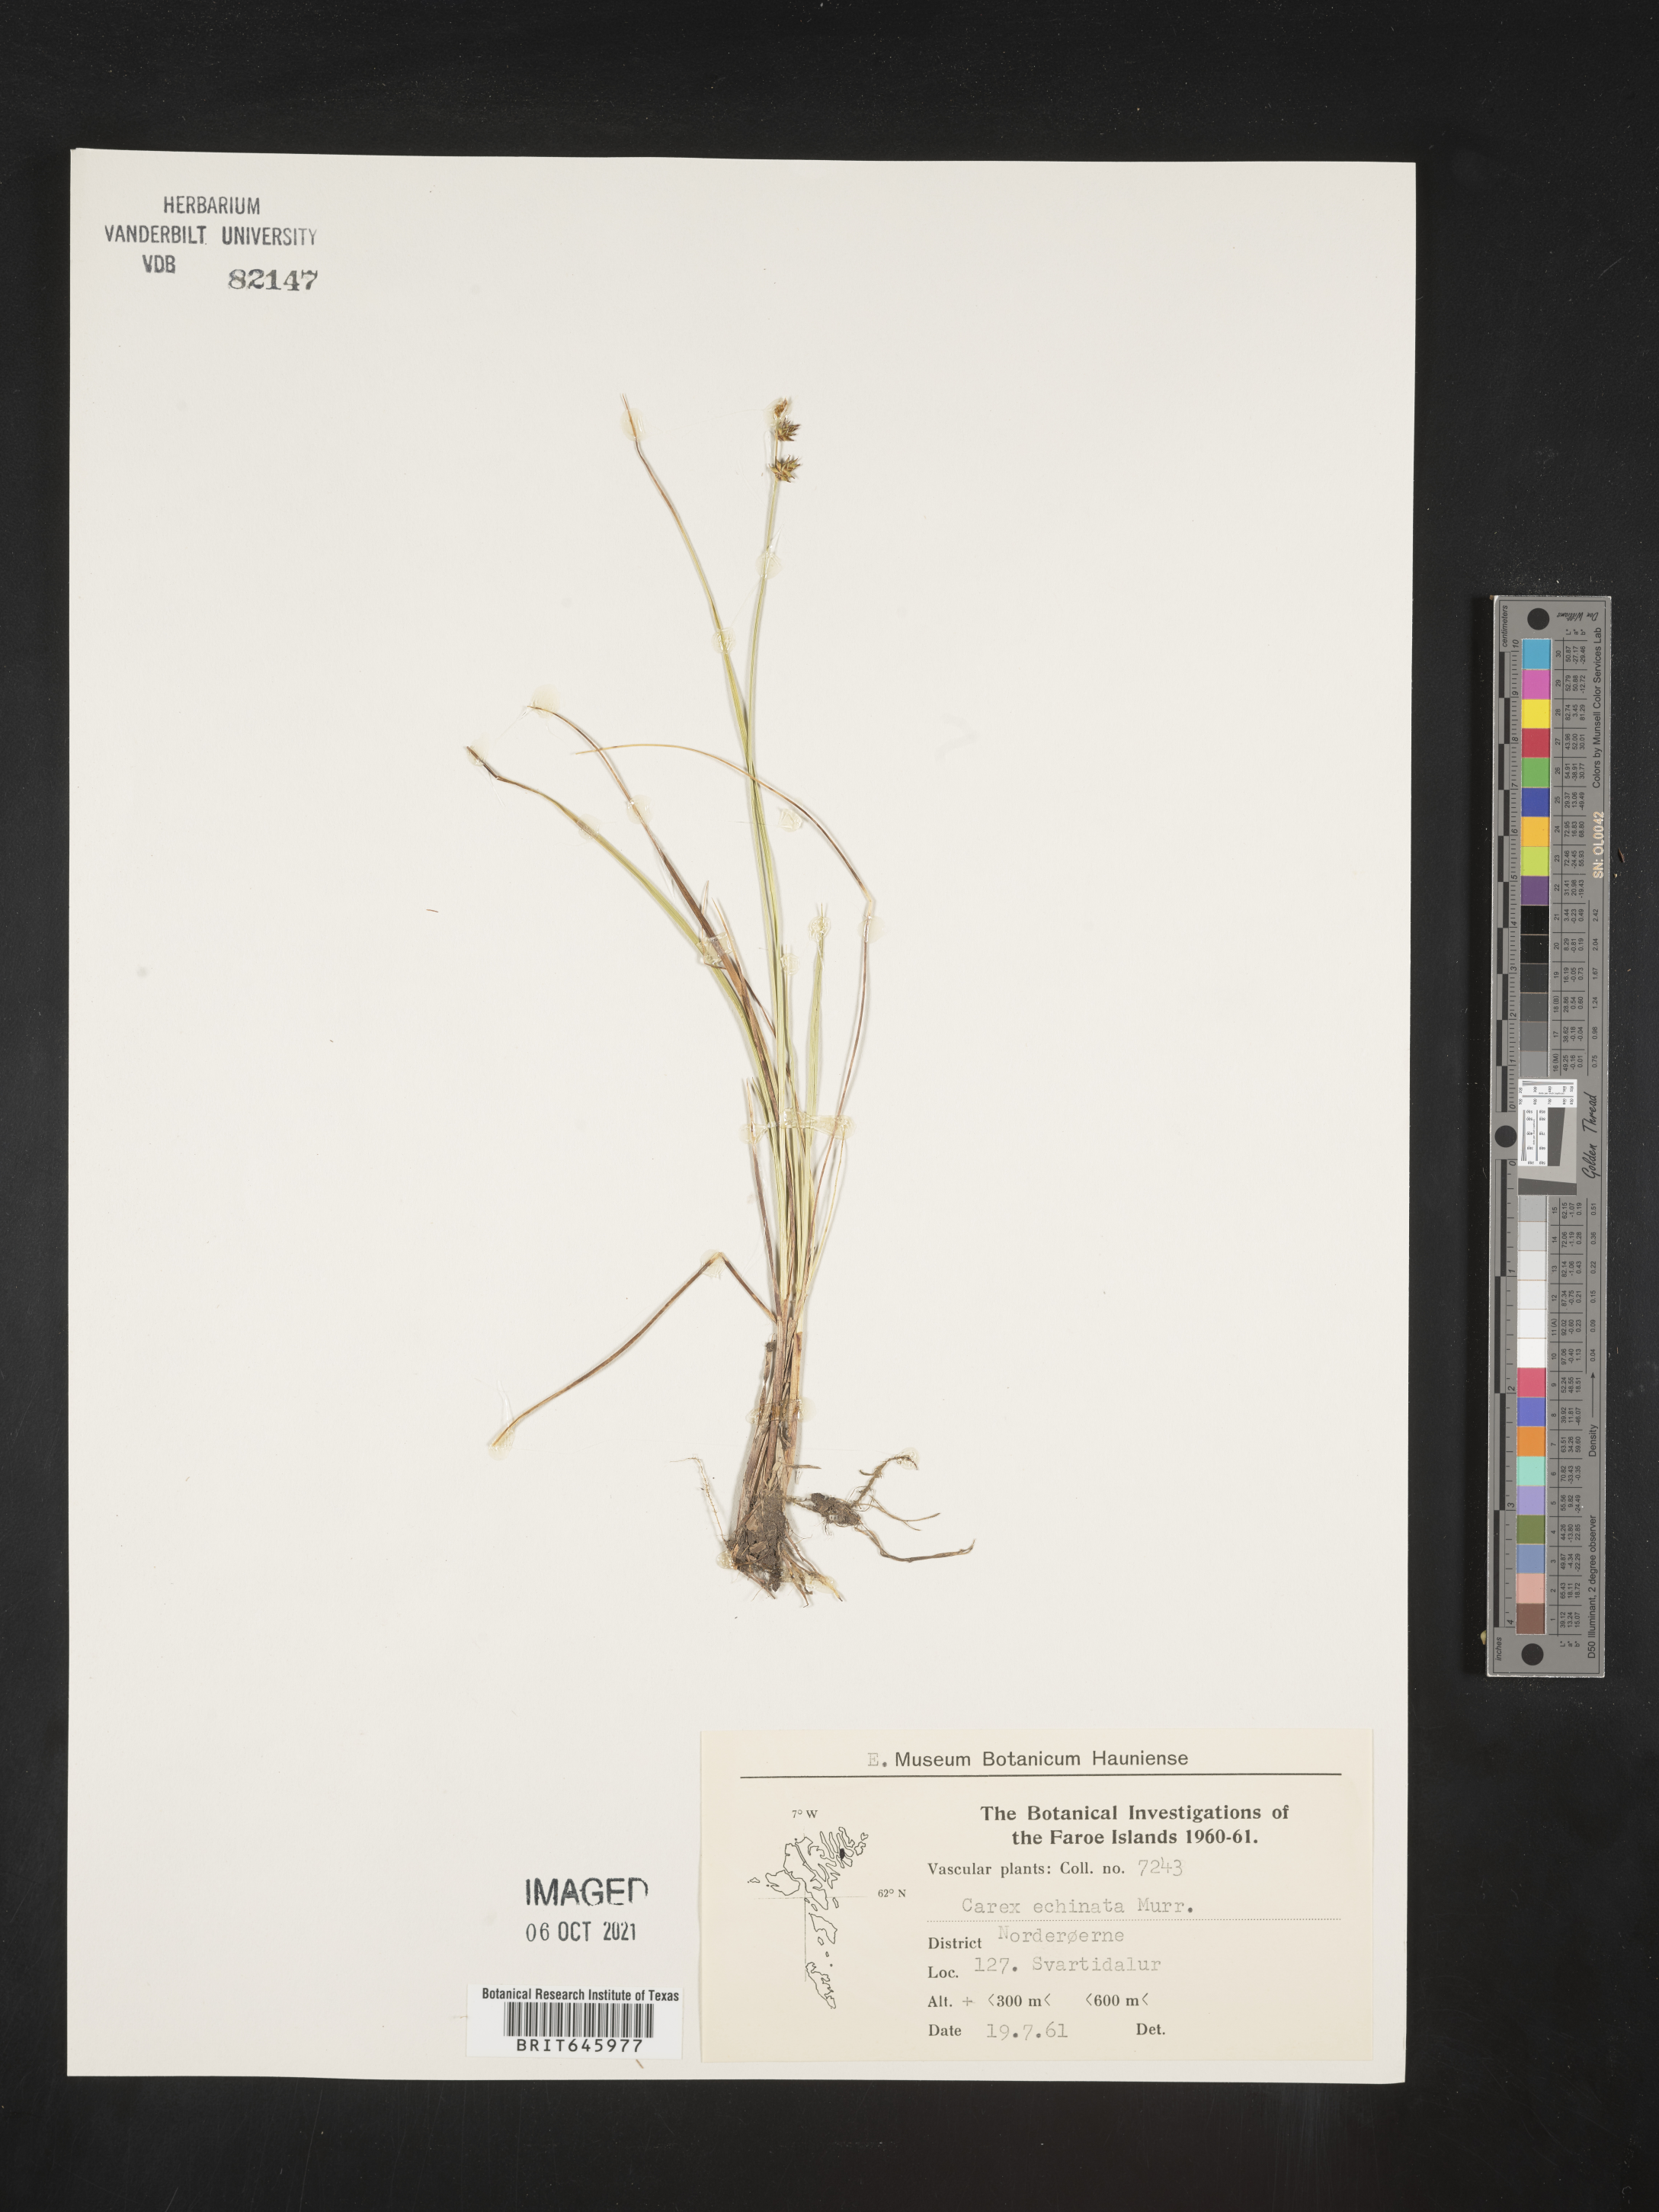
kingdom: Plantae
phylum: Tracheophyta
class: Liliopsida
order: Poales
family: Cyperaceae
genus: Carex
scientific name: Carex echinata
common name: Star sedge
